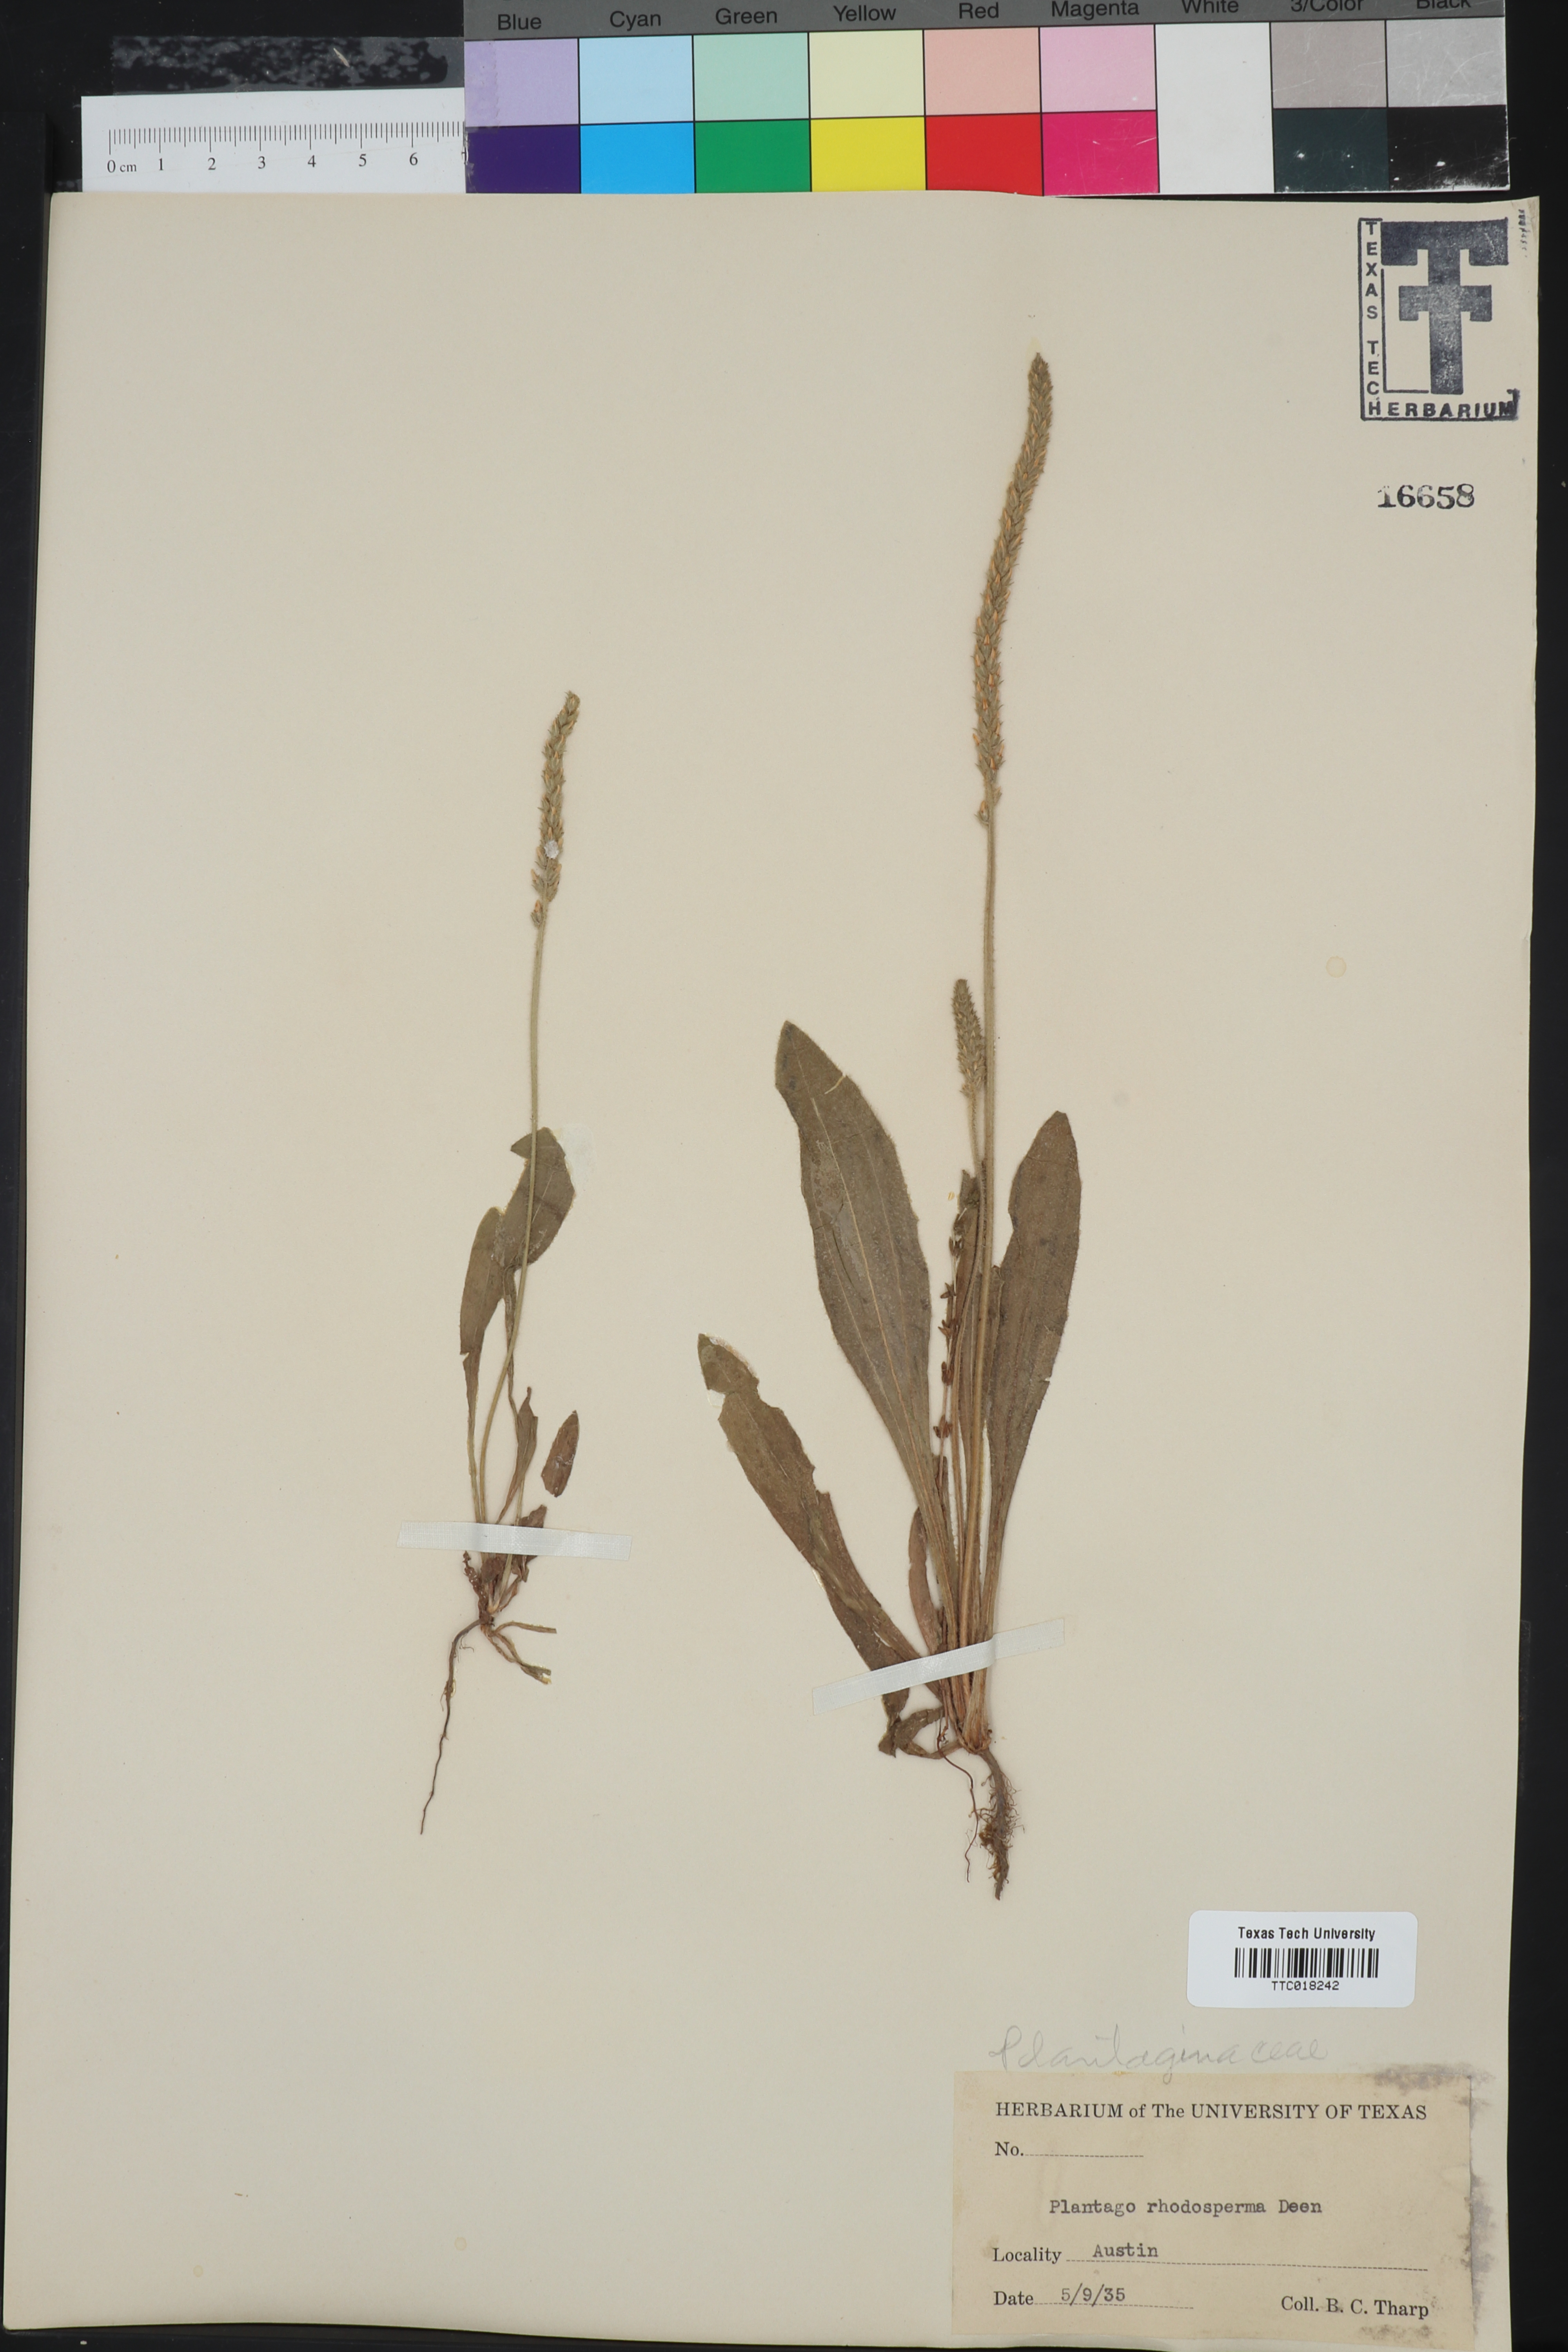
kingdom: Plantae
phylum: Tracheophyta
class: Magnoliopsida
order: Lamiales
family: Plantaginaceae
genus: Plantago
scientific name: Plantago rhodosperma
